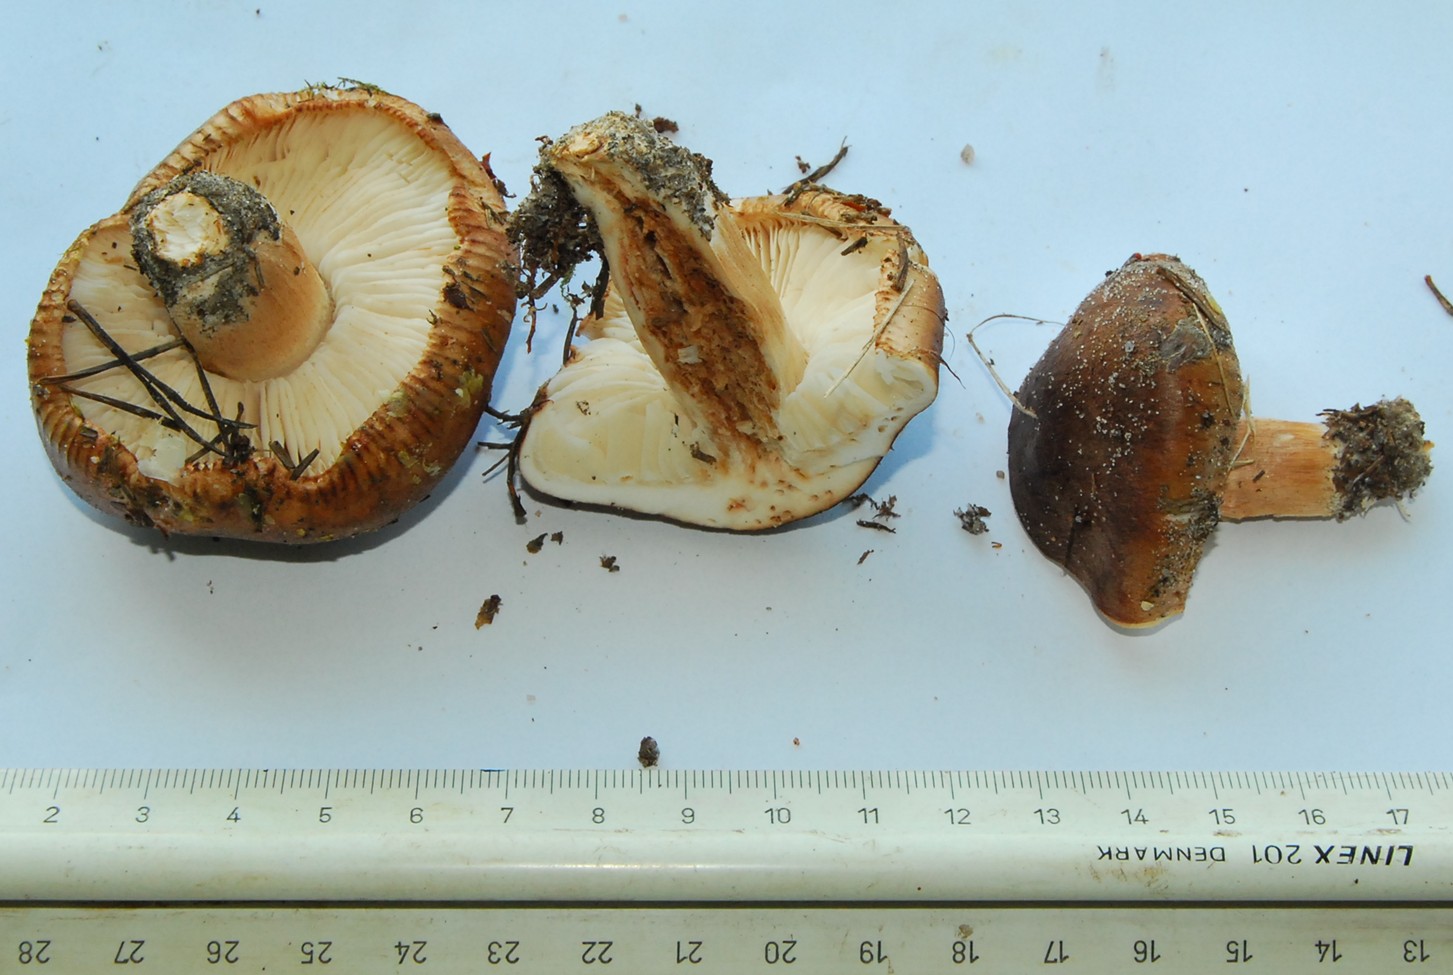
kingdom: Fungi
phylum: Basidiomycota
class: Agaricomycetes
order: Agaricales
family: Tricholomataceae
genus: Tricholoma
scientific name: Tricholoma stans
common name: stolt ridderhat
